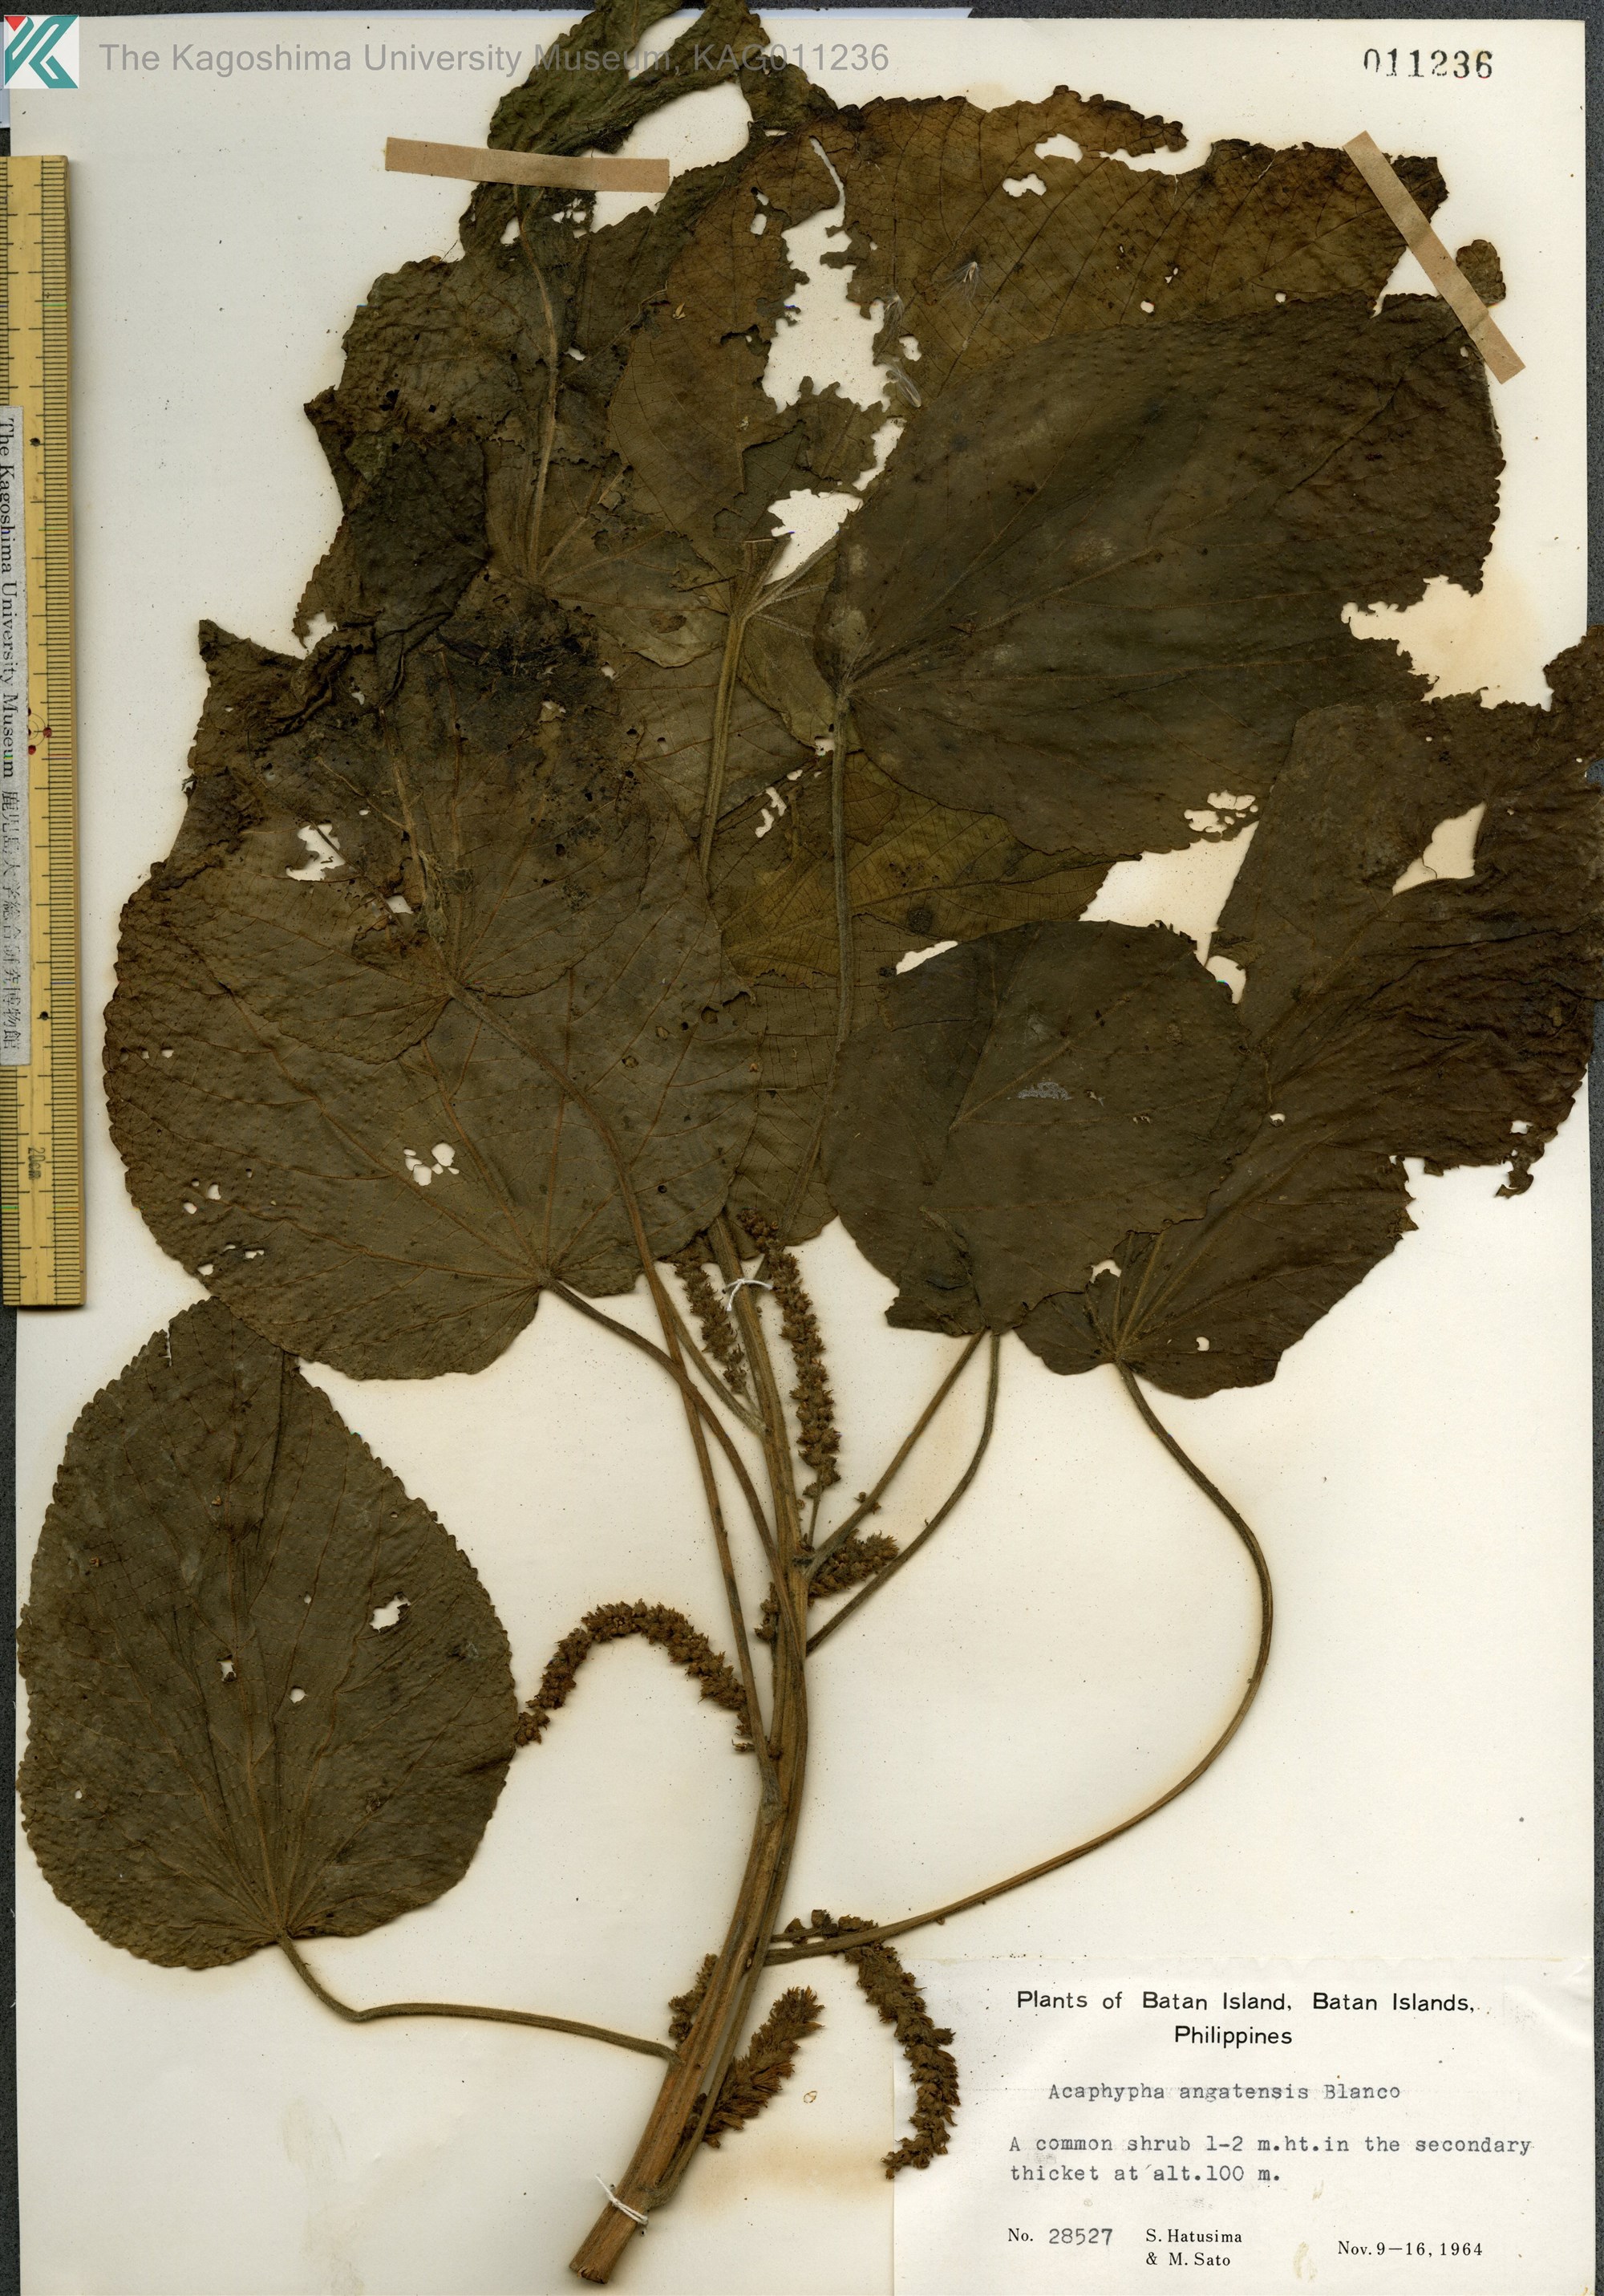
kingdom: Plantae
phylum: Tracheophyta
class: Magnoliopsida
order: Malpighiales
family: Euphorbiaceae
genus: Acalypha
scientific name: Acalypha angatensis
